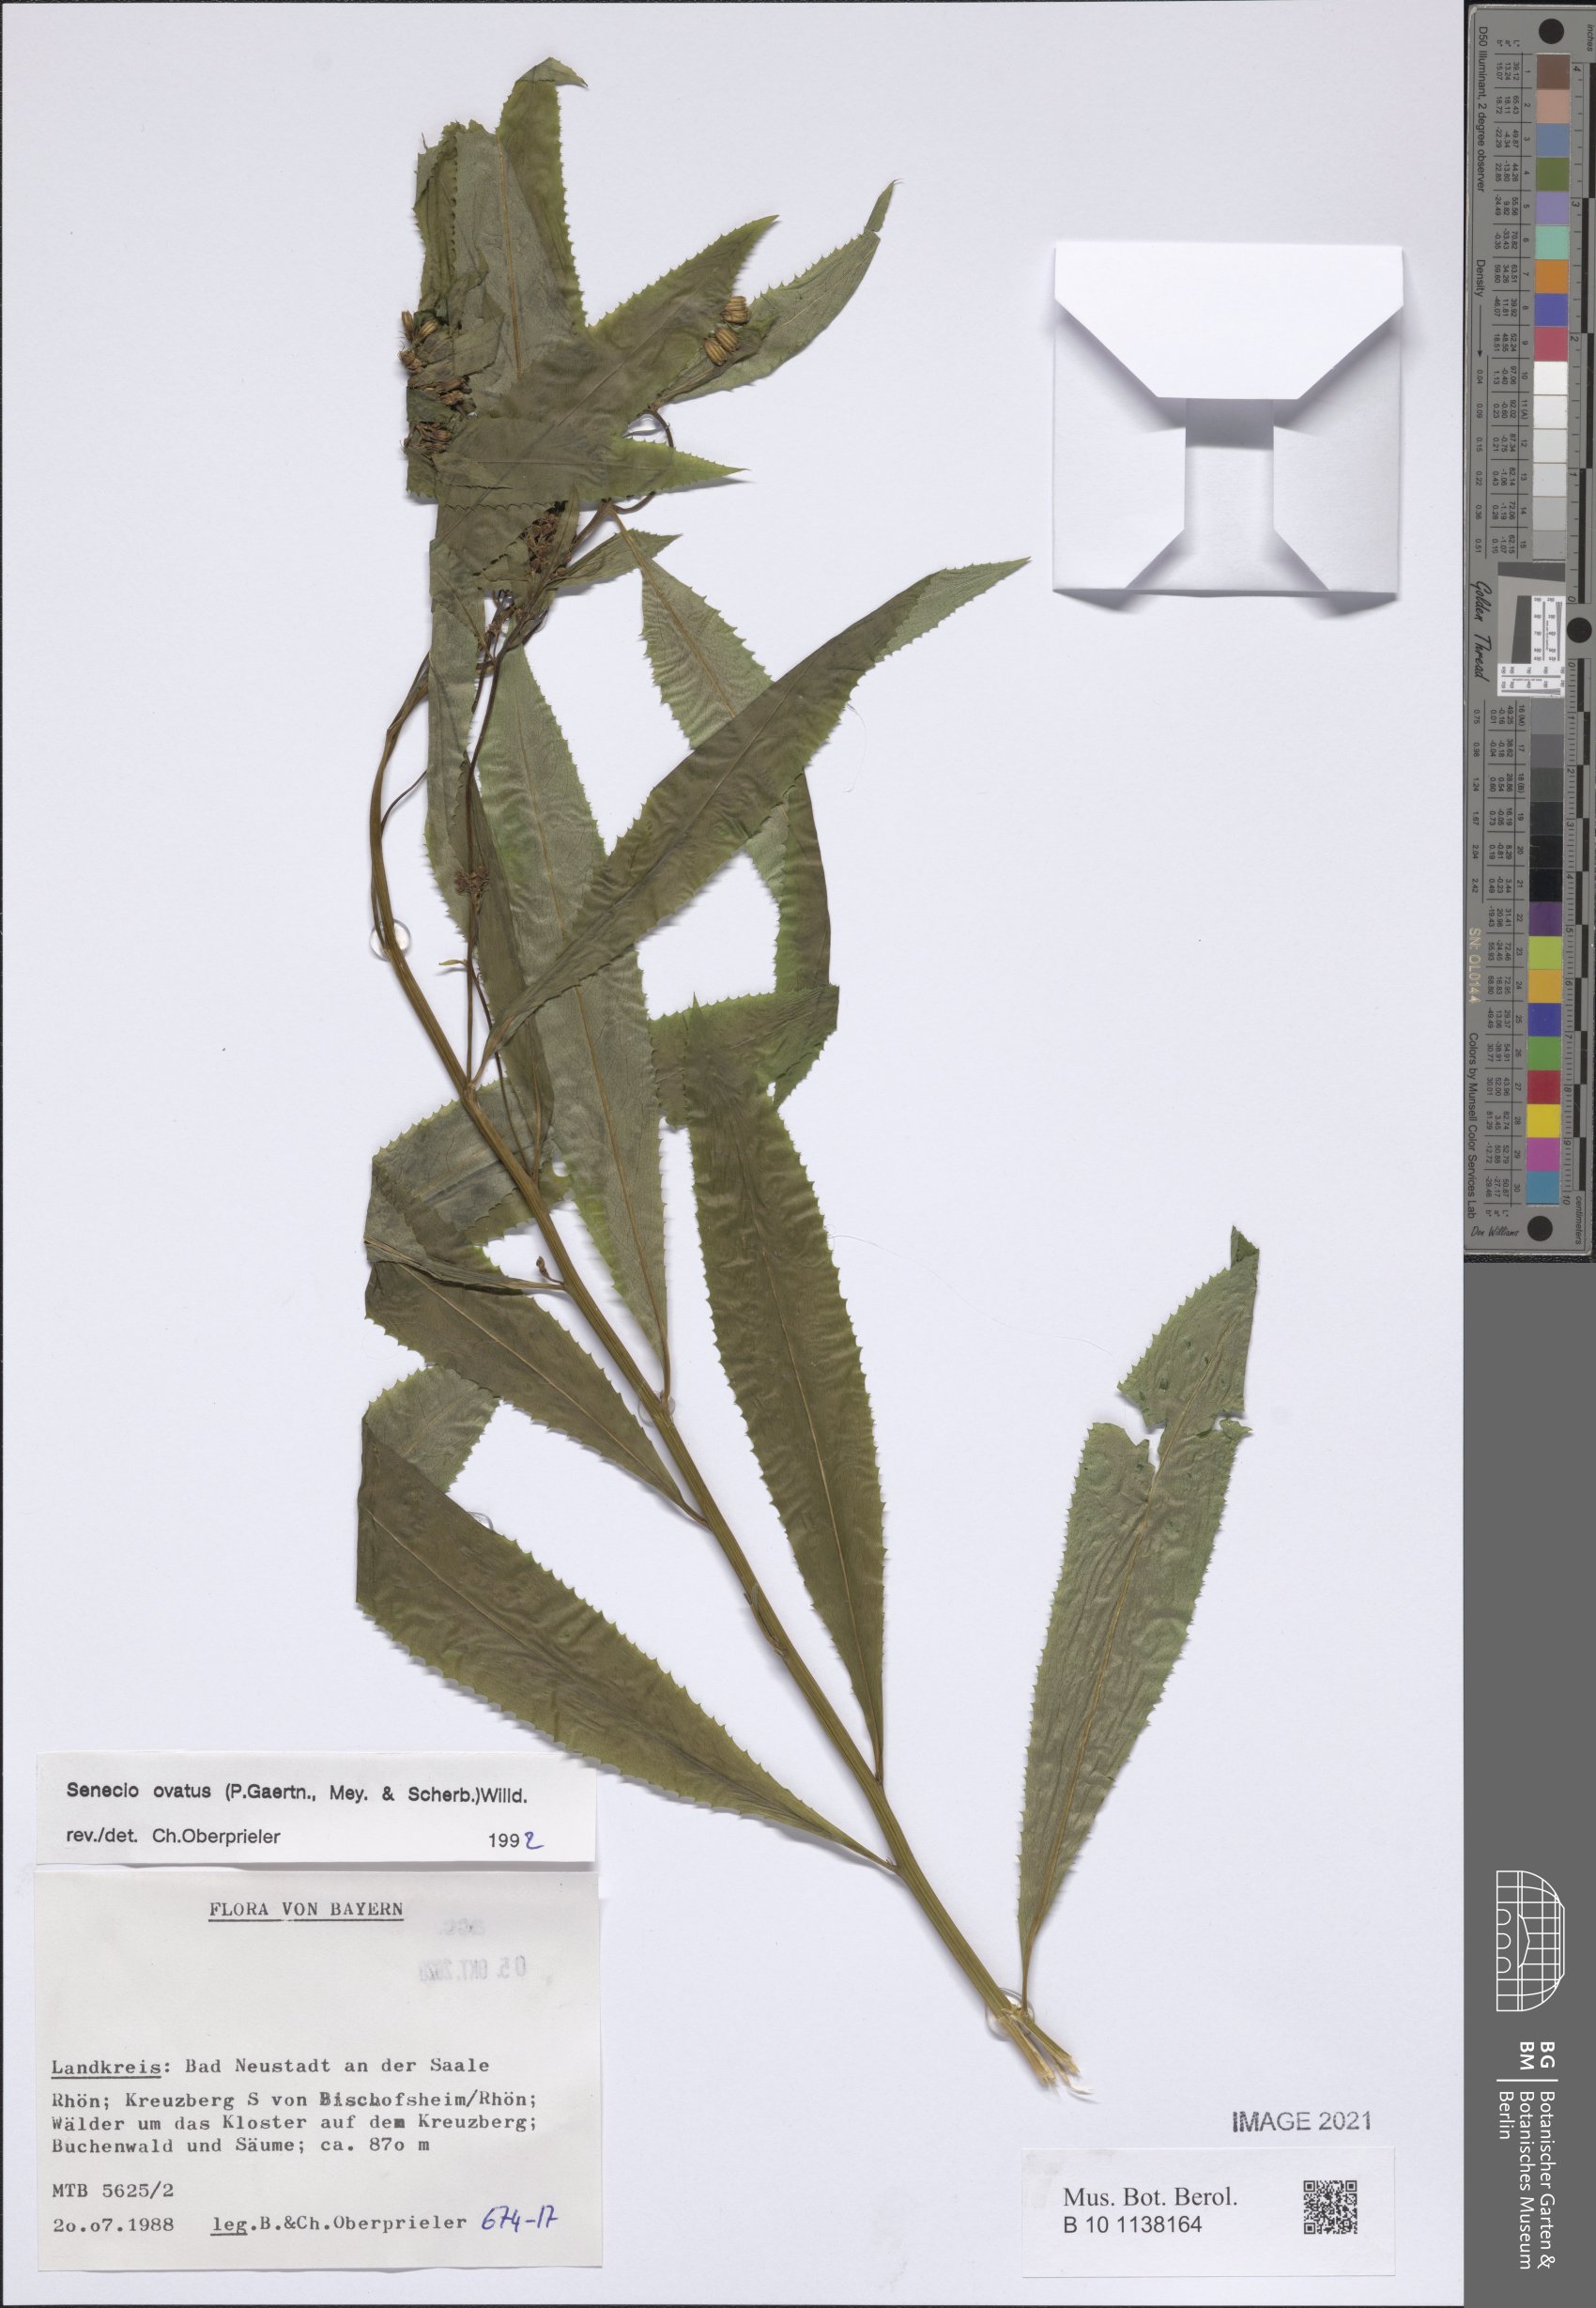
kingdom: Plantae
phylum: Tracheophyta
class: Magnoliopsida
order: Asterales
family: Asteraceae
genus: Senecio
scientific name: Senecio ovatus
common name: Wood ragwort
